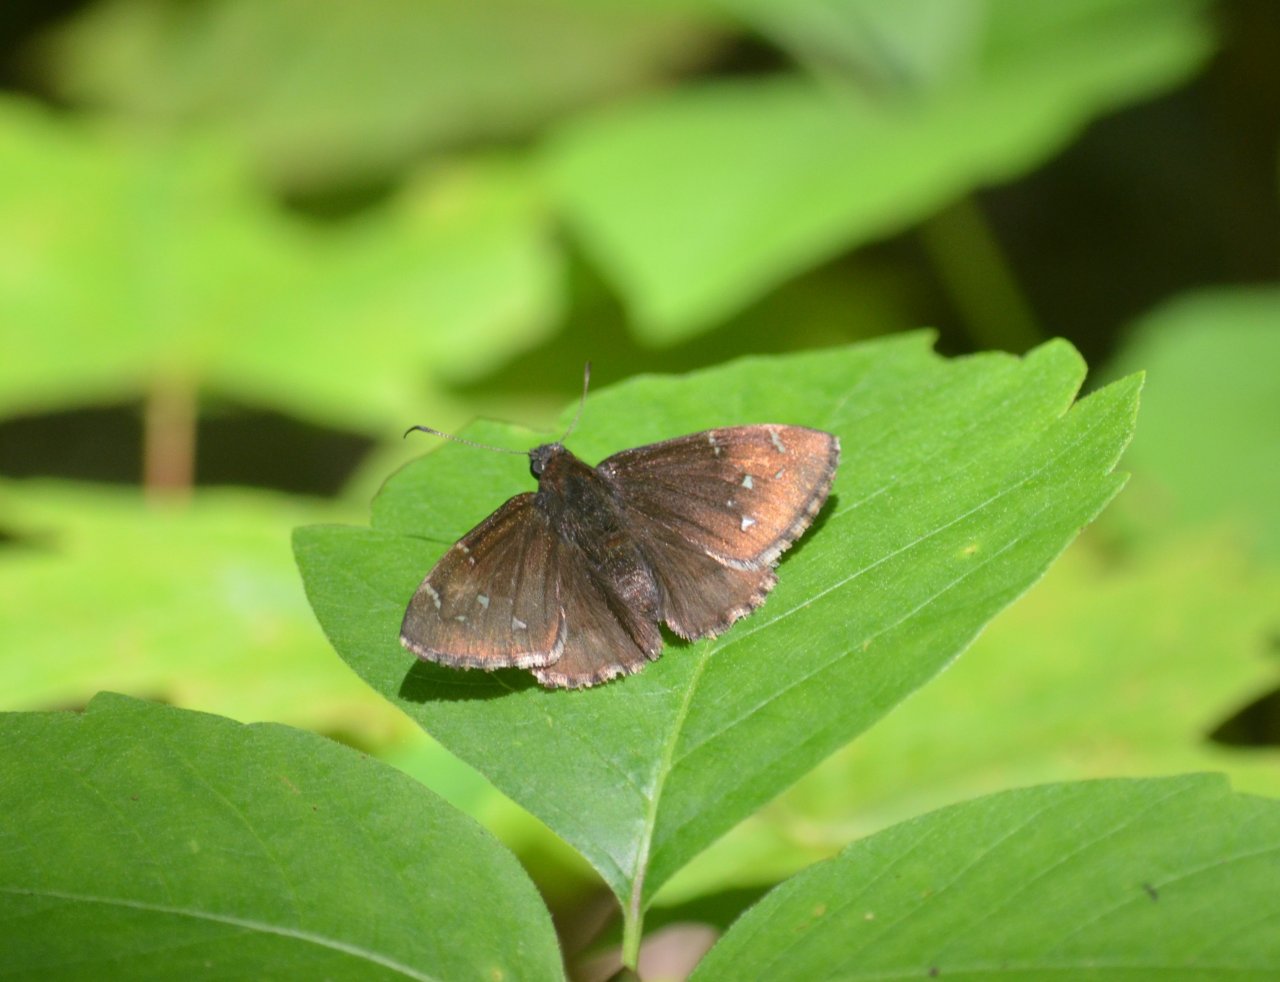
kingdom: Animalia
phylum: Arthropoda
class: Insecta
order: Lepidoptera
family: Hesperiidae
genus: Autochton
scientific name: Autochton
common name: Northern Cloudywing
